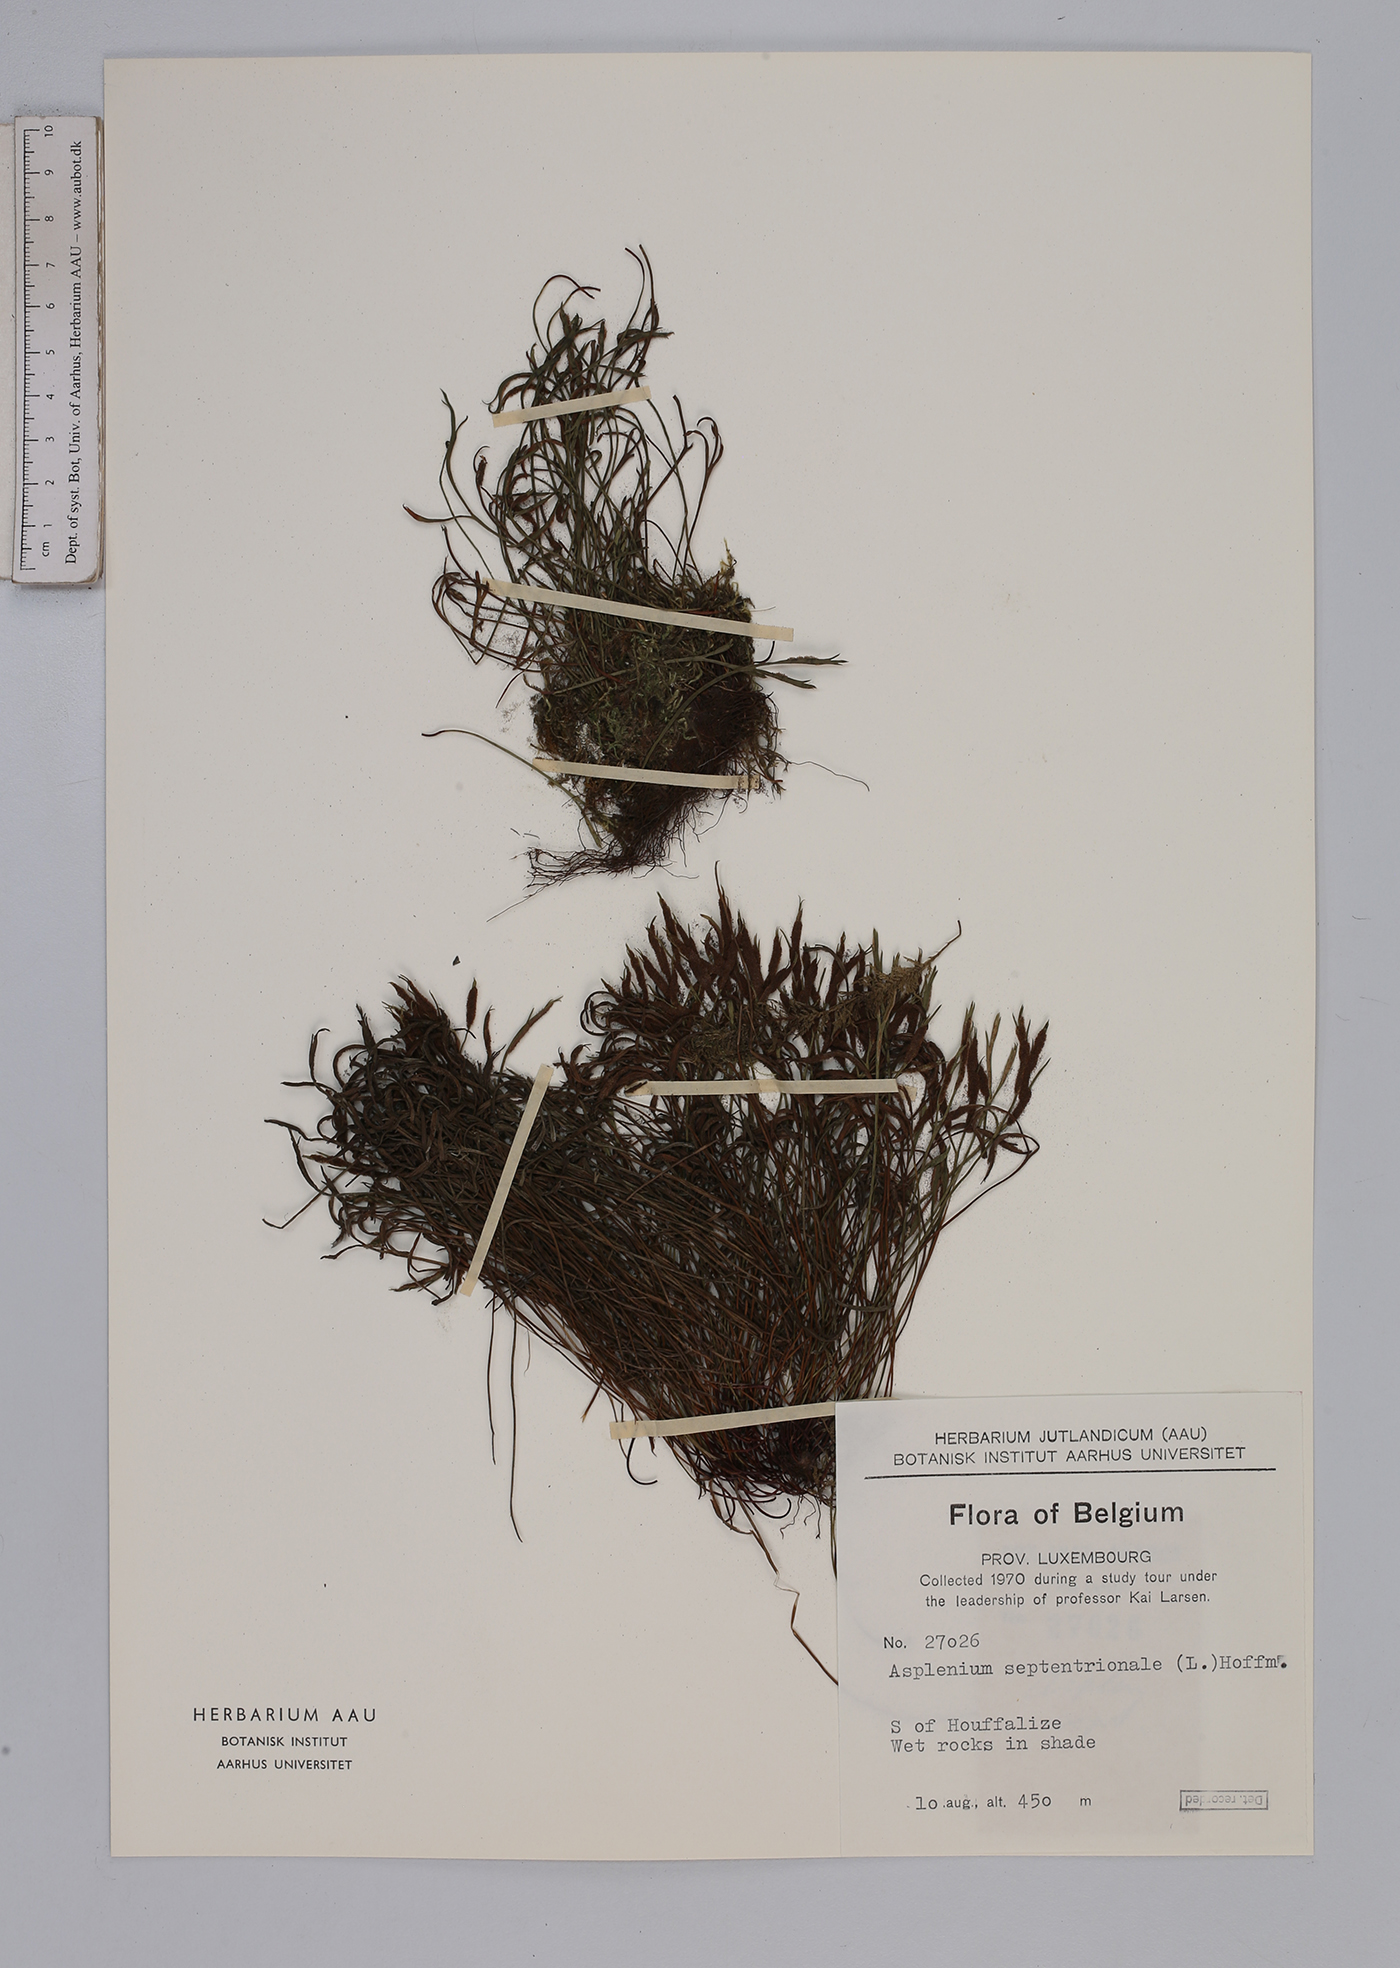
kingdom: Plantae
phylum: Tracheophyta
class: Polypodiopsida
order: Polypodiales
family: Aspleniaceae
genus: Asplenium
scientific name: Asplenium septentrionale
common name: Forked spleenwort
